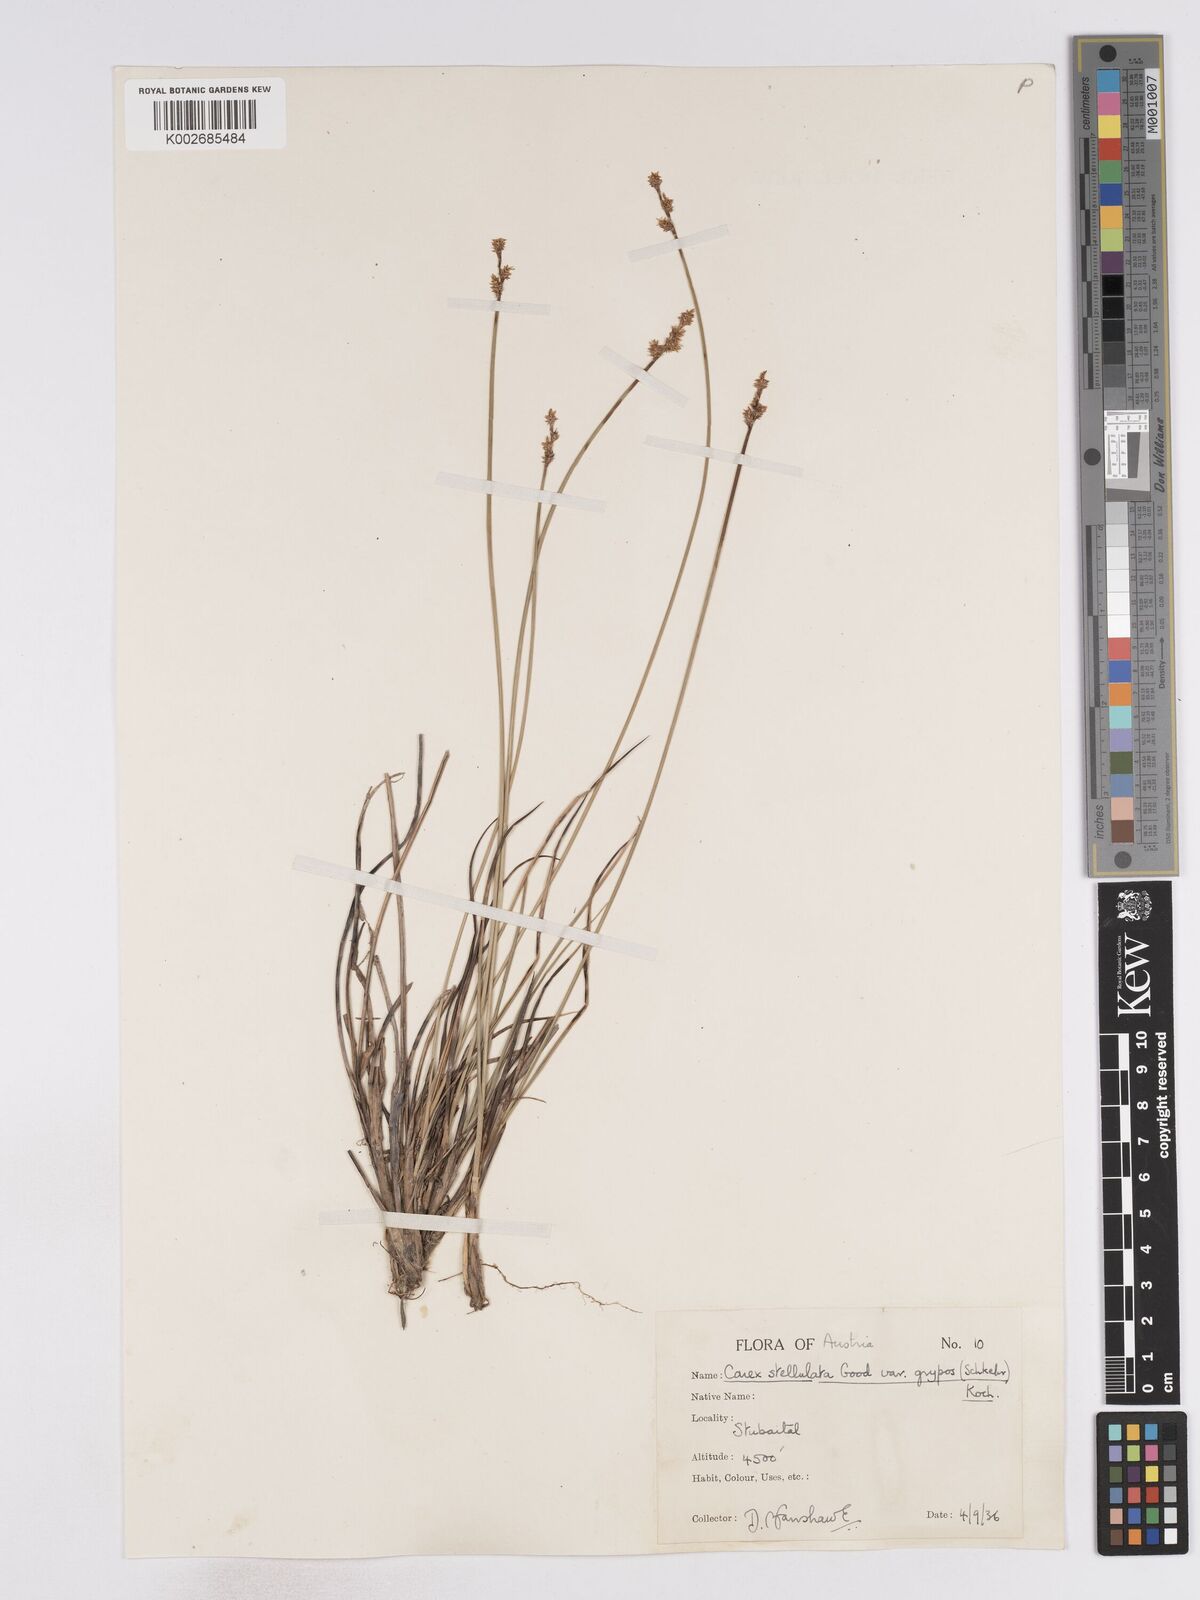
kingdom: Plantae
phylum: Tracheophyta
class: Liliopsida
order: Poales
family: Cyperaceae
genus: Carex
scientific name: Carex echinata
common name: Star sedge
